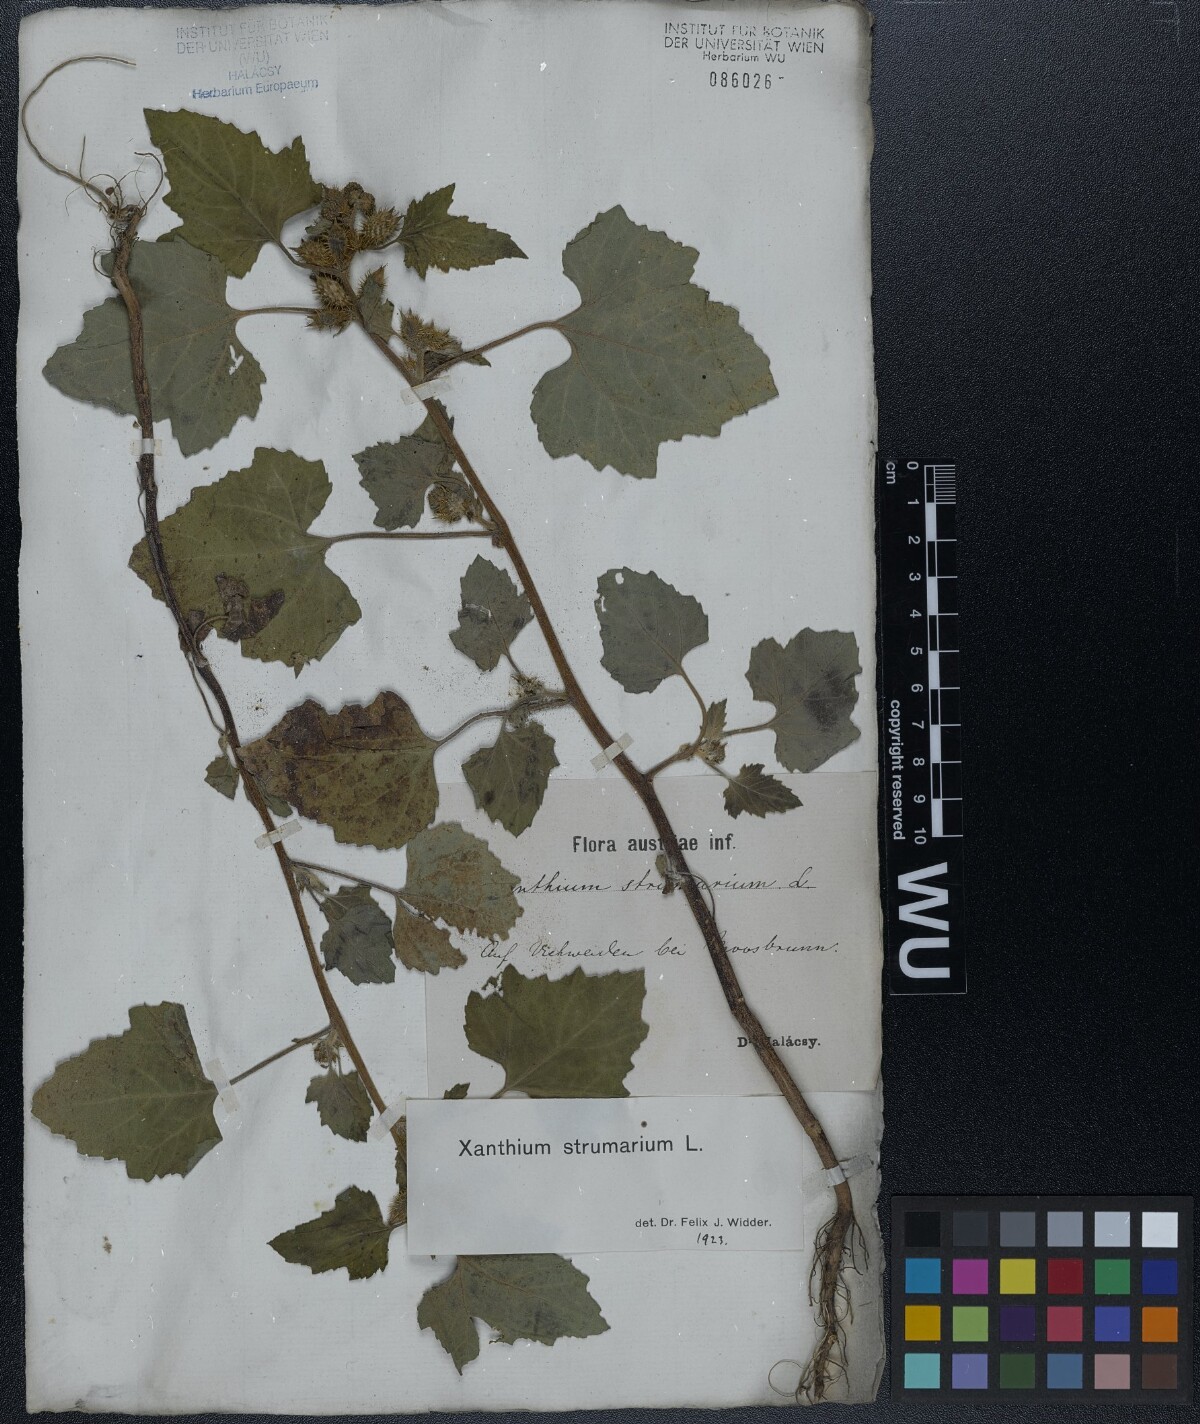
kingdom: Plantae
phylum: Tracheophyta
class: Magnoliopsida
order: Asterales
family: Asteraceae
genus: Xanthium
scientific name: Xanthium strumarium
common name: Rough cocklebur
